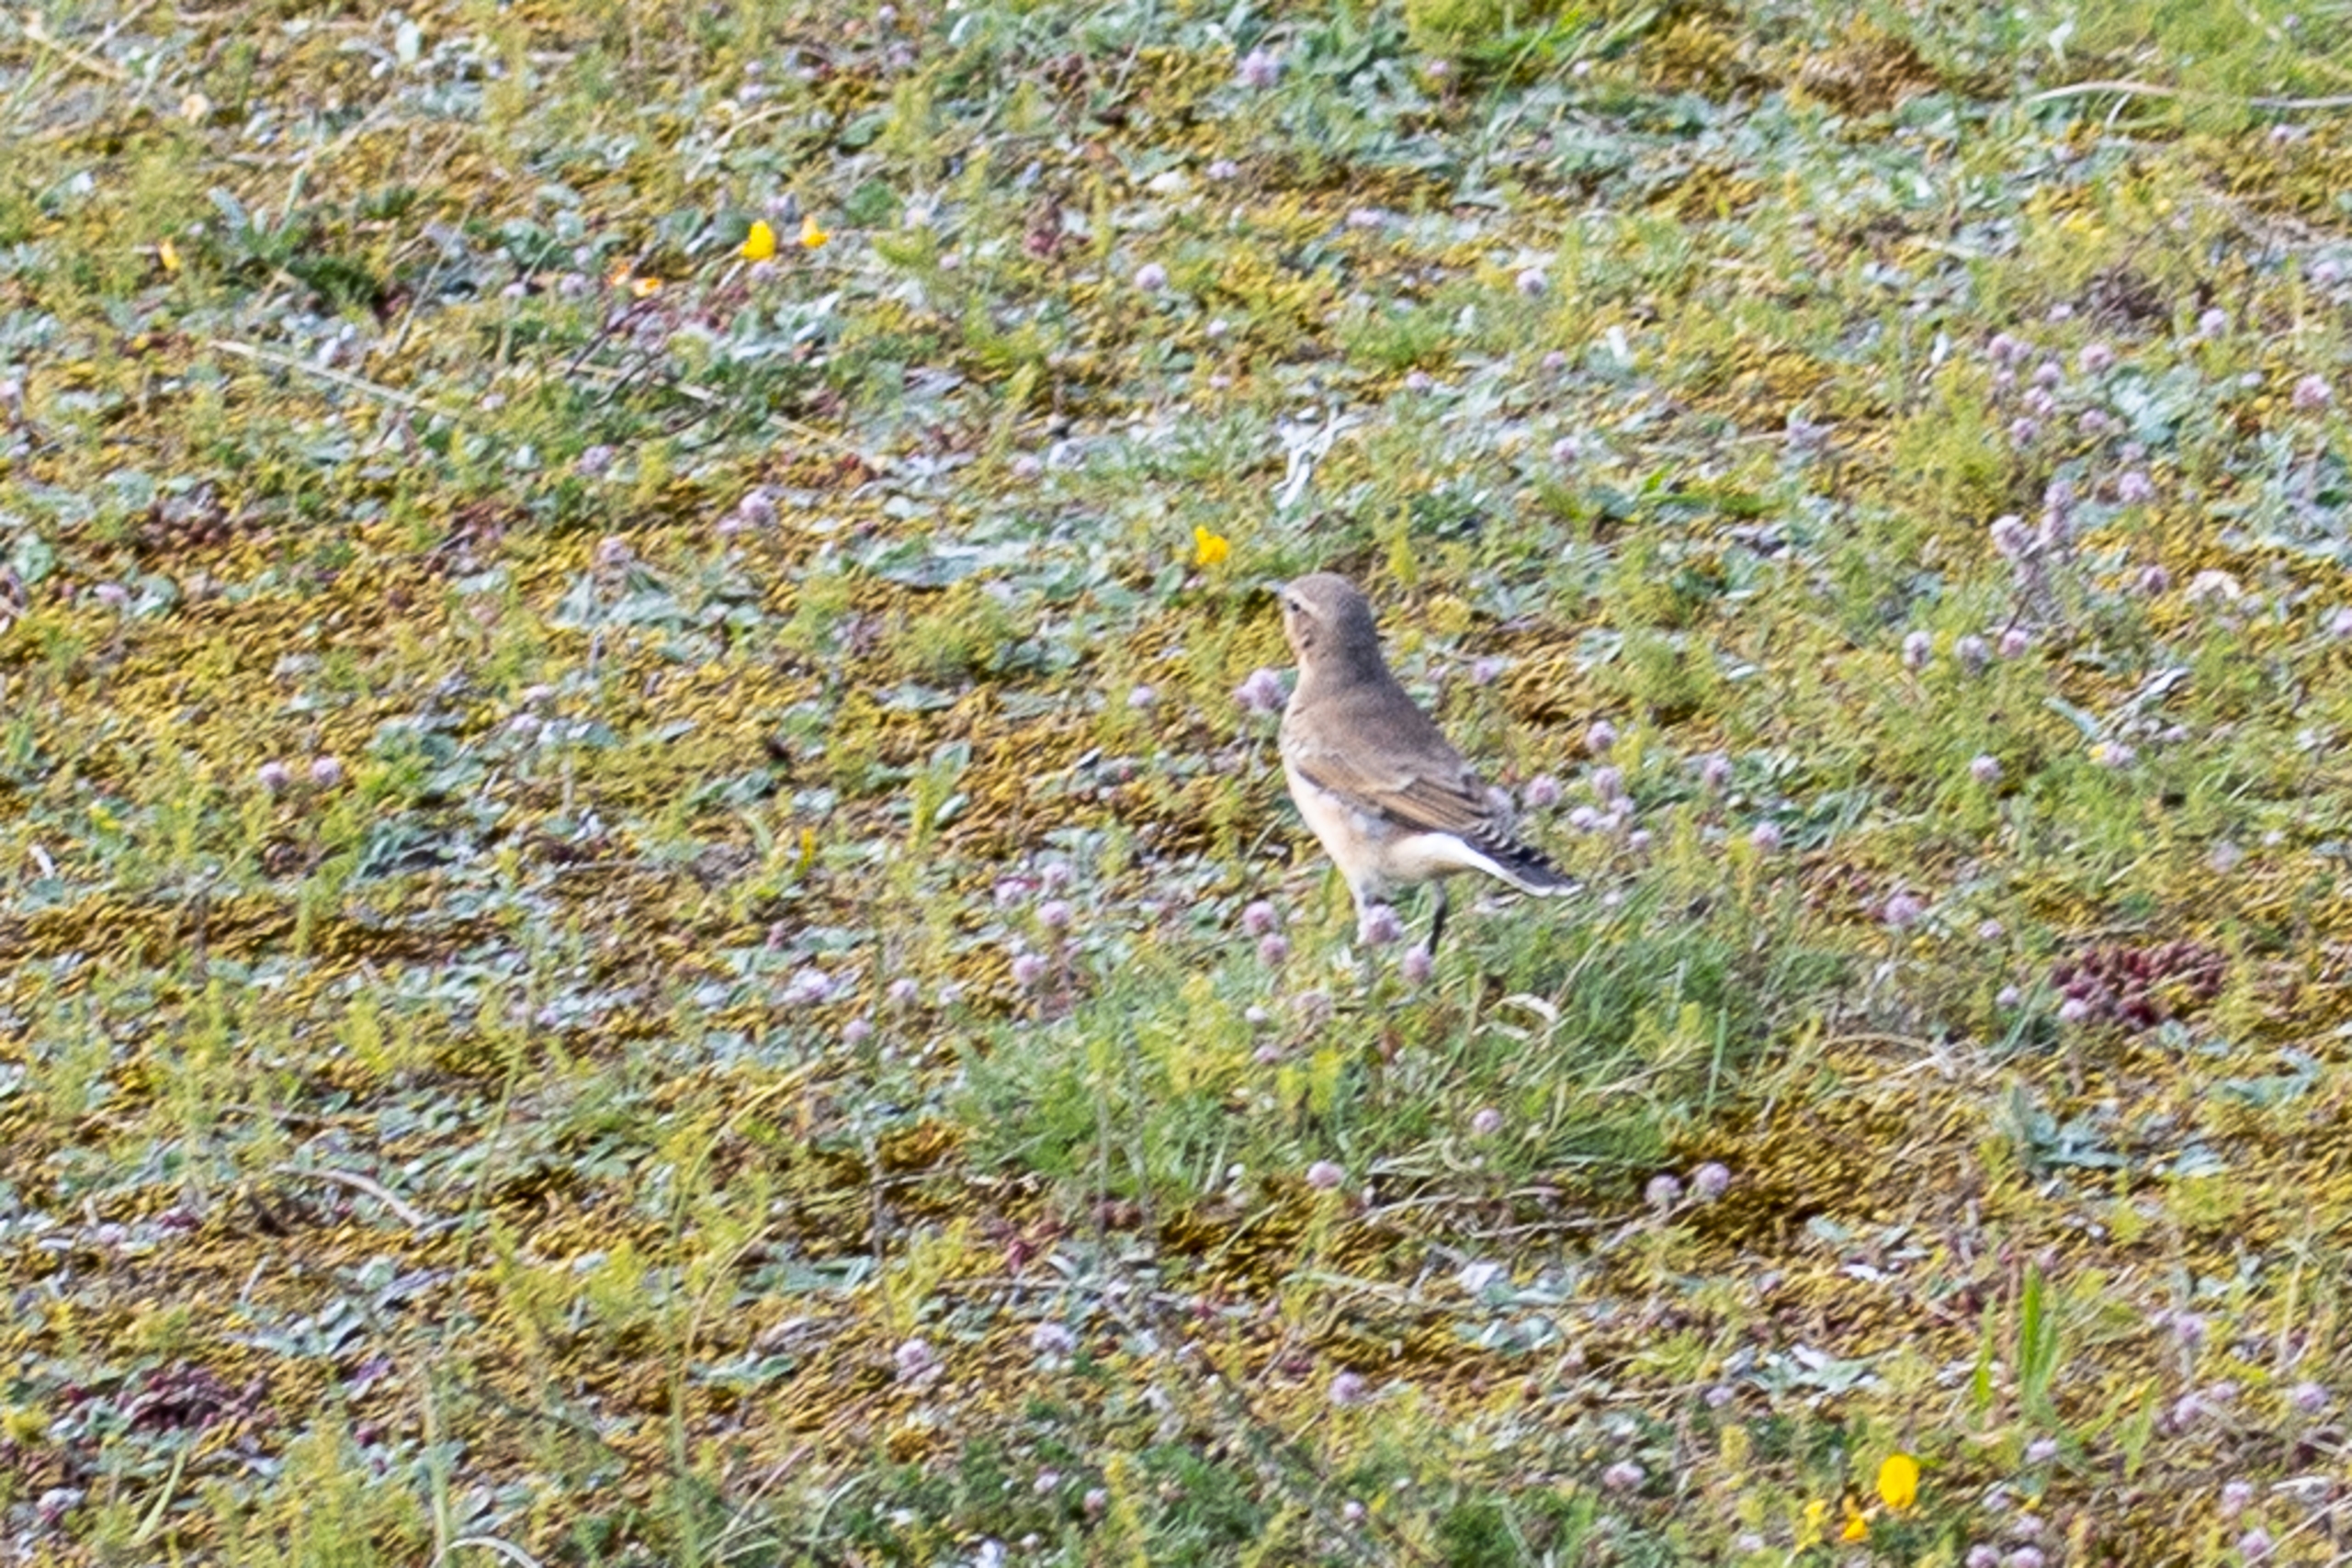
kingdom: Animalia
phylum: Chordata
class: Aves
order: Passeriformes
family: Muscicapidae
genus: Oenanthe
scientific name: Oenanthe oenanthe
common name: Stenpikker
